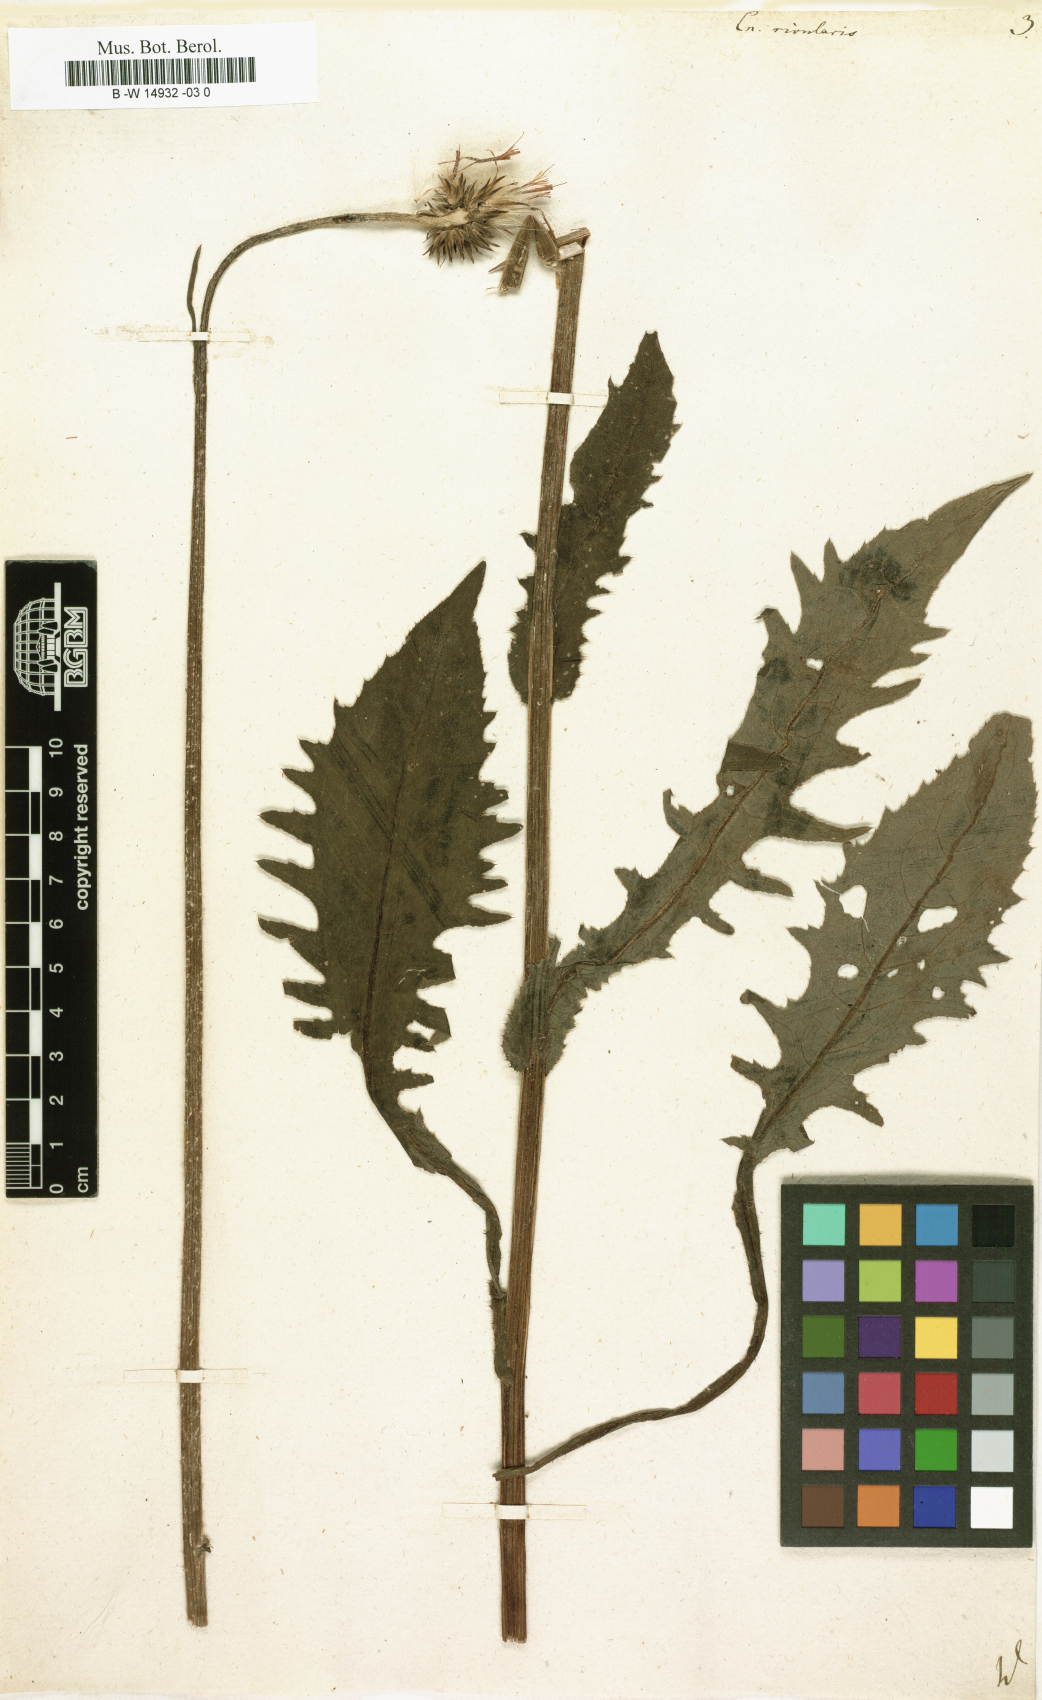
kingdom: Plantae
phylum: Tracheophyta
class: Magnoliopsida
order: Asterales
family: Asteraceae
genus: Cirsium
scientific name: Cirsium
